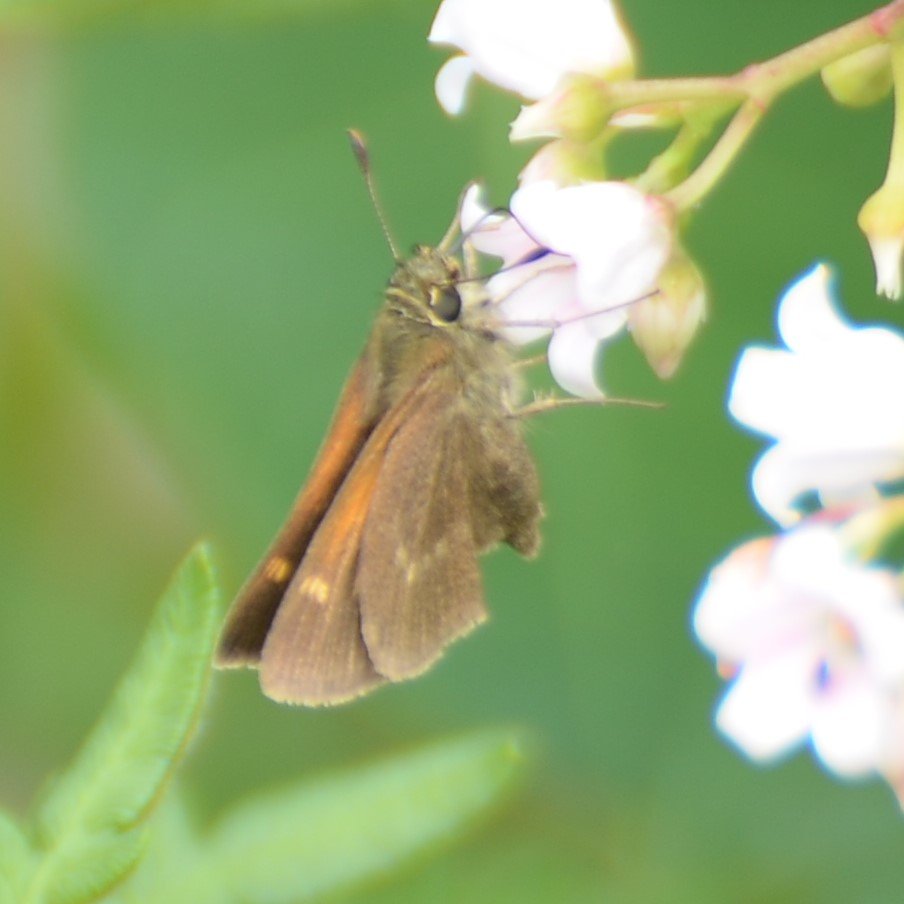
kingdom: Animalia
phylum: Arthropoda
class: Insecta
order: Lepidoptera
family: Hesperiidae
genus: Polites
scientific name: Polites themistocles
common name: Tawny-edged Skipper
